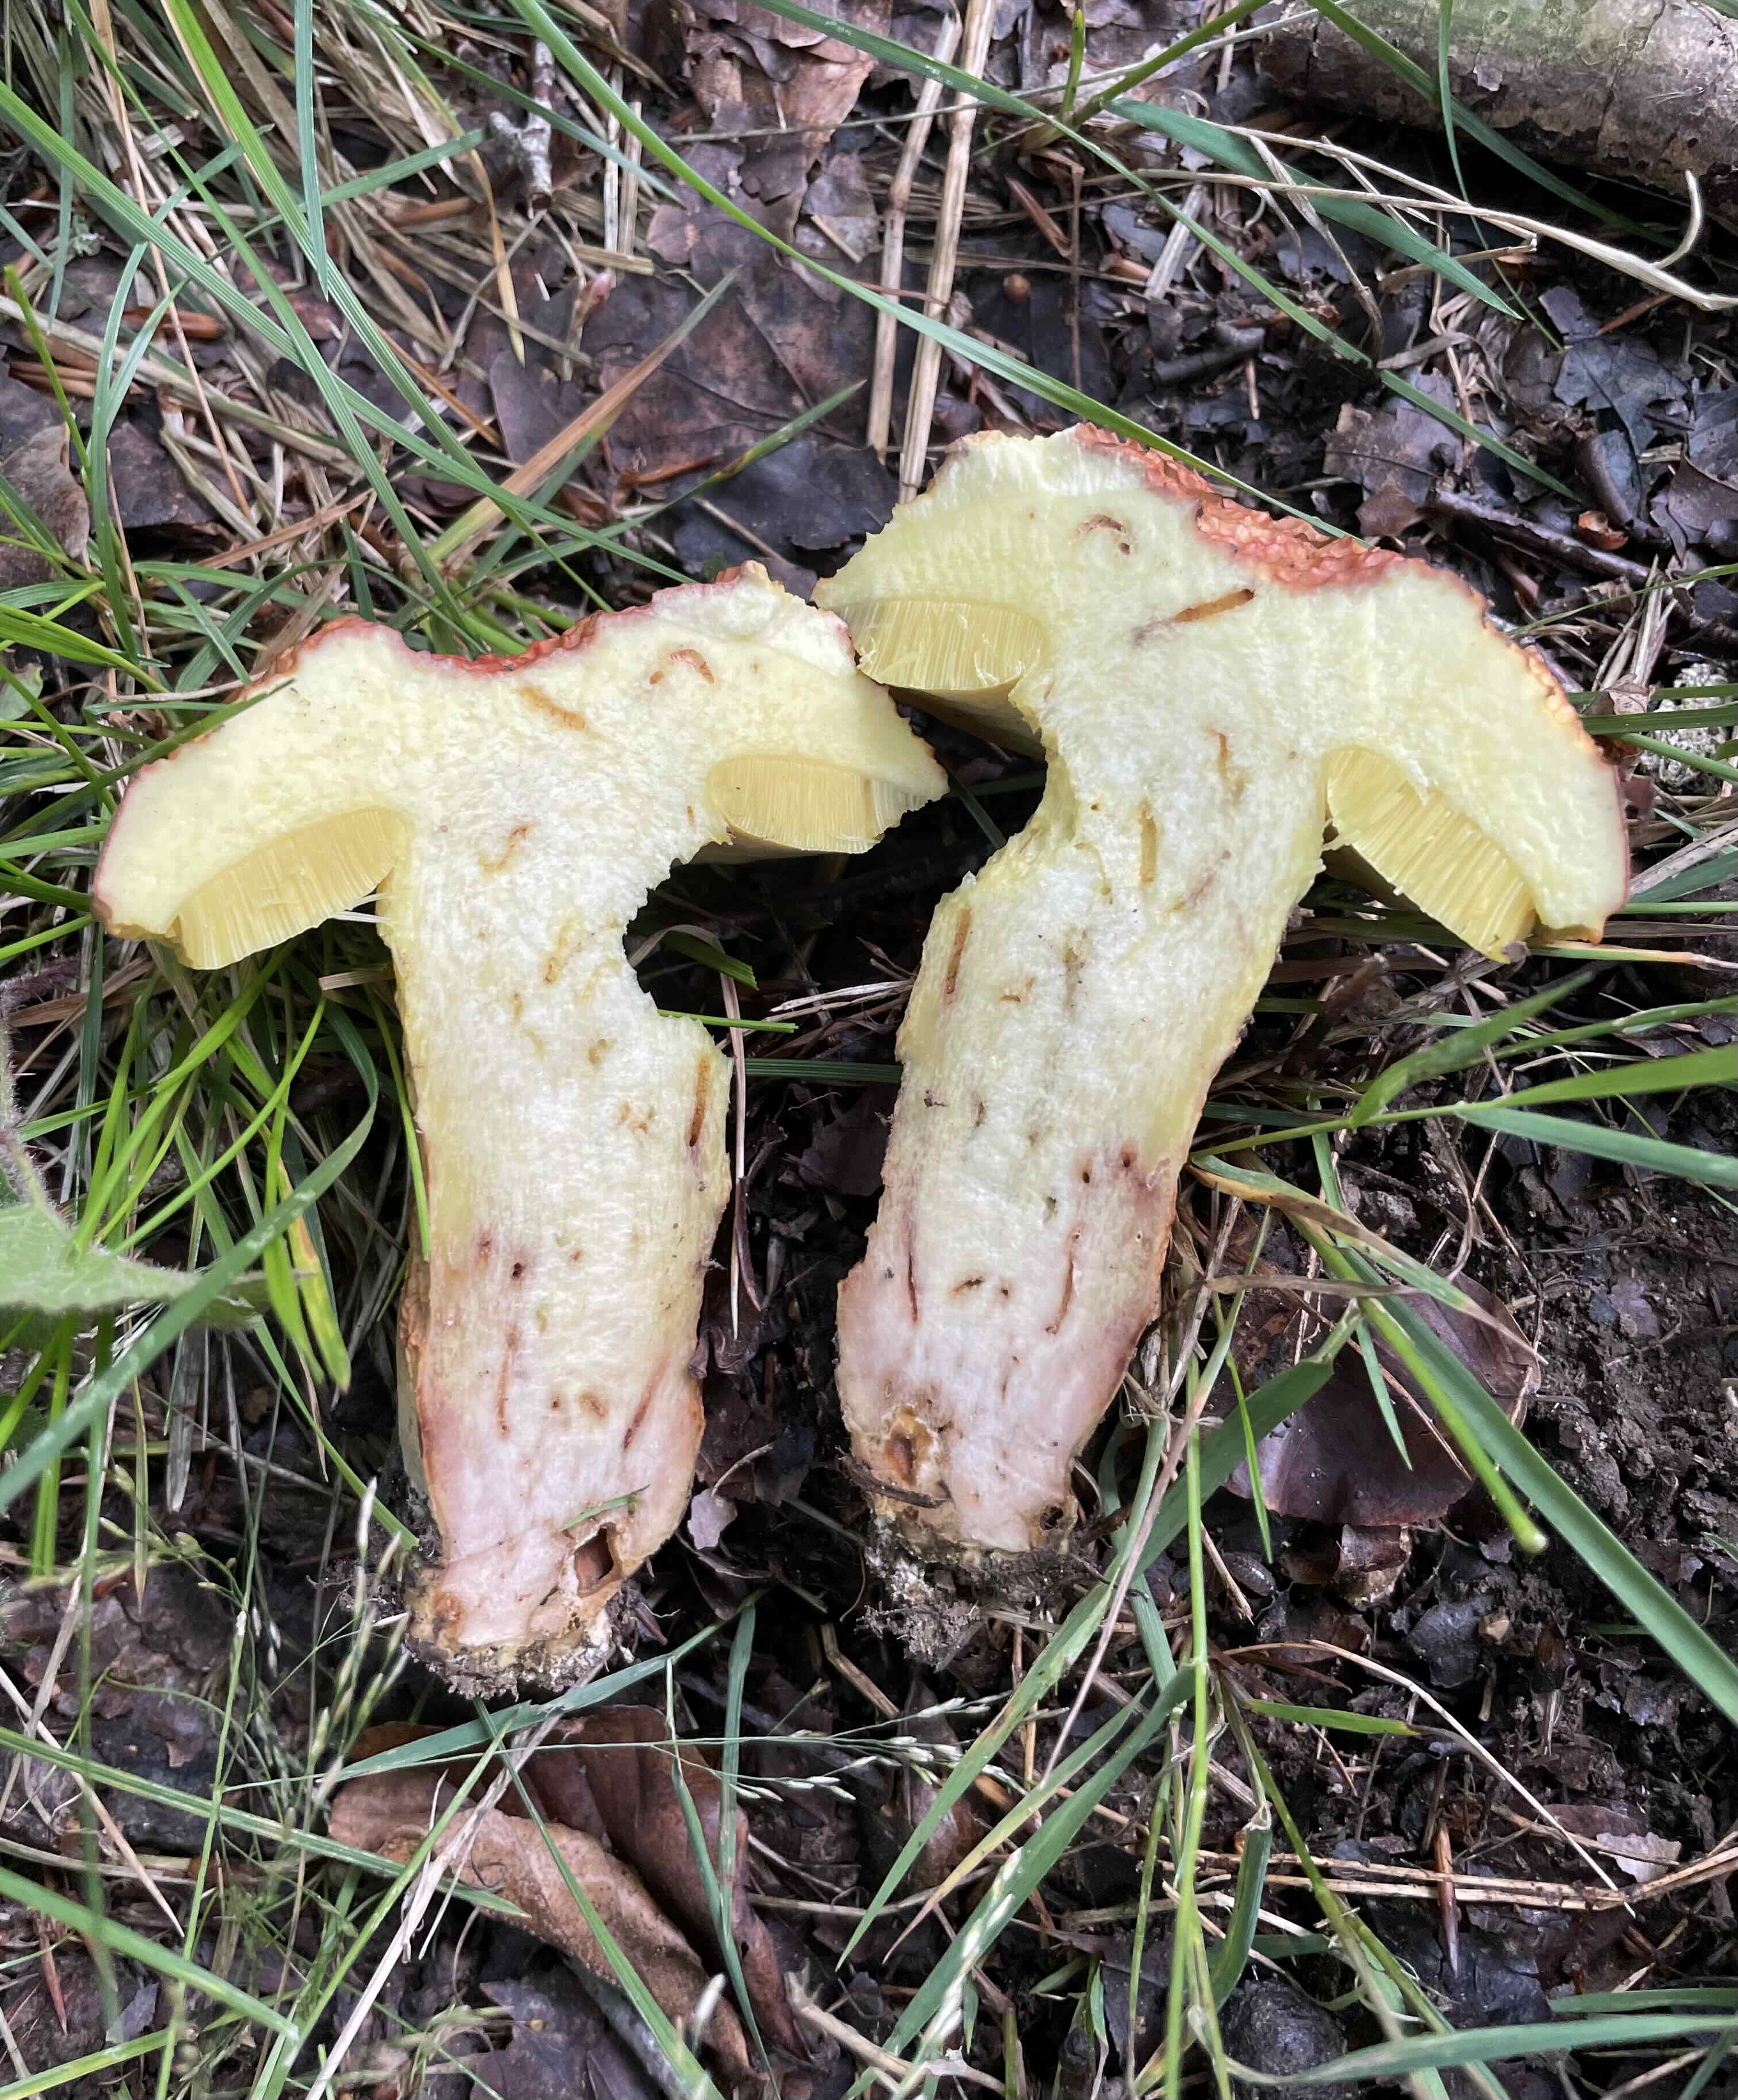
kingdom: Fungi
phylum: Basidiomycota
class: Agaricomycetes
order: Boletales
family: Boletaceae
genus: Butyriboletus
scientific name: Butyriboletus appendiculatus
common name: tenstokket rørhat
